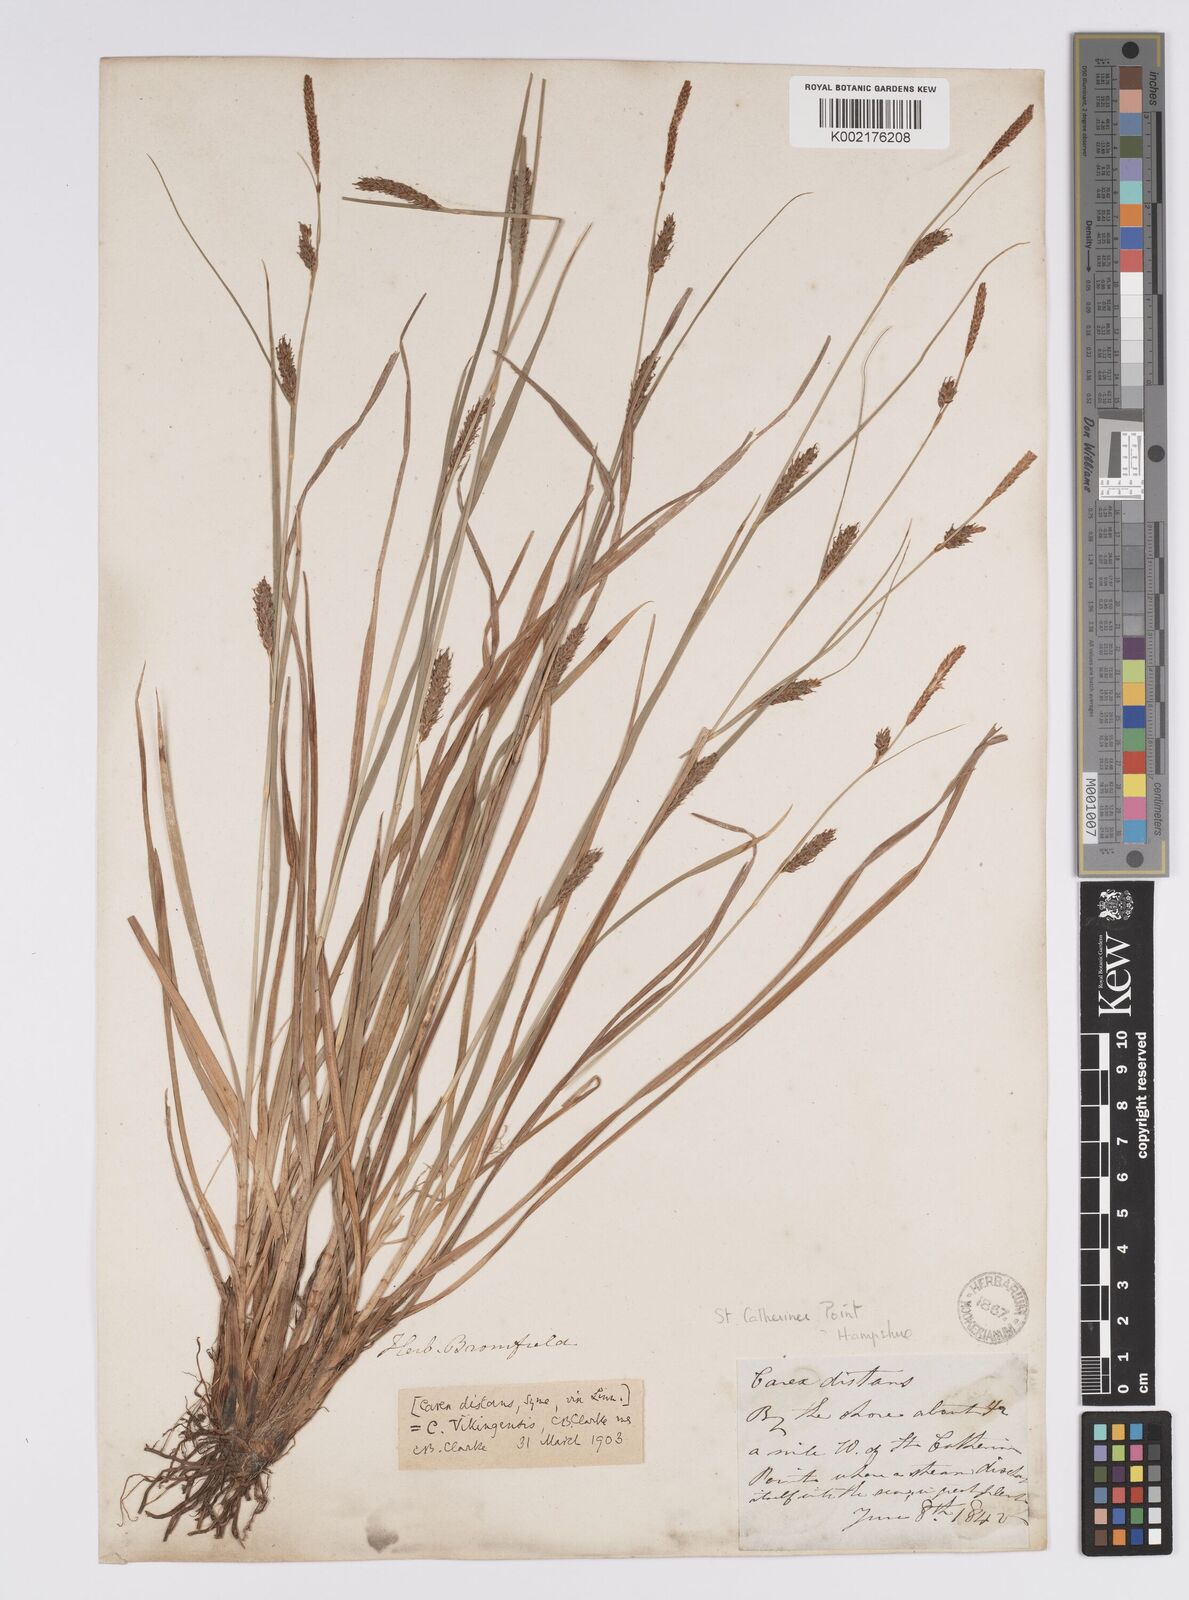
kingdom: Plantae
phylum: Tracheophyta
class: Liliopsida
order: Poales
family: Cyperaceae
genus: Carex
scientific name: Carex distans
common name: Distant sedge
